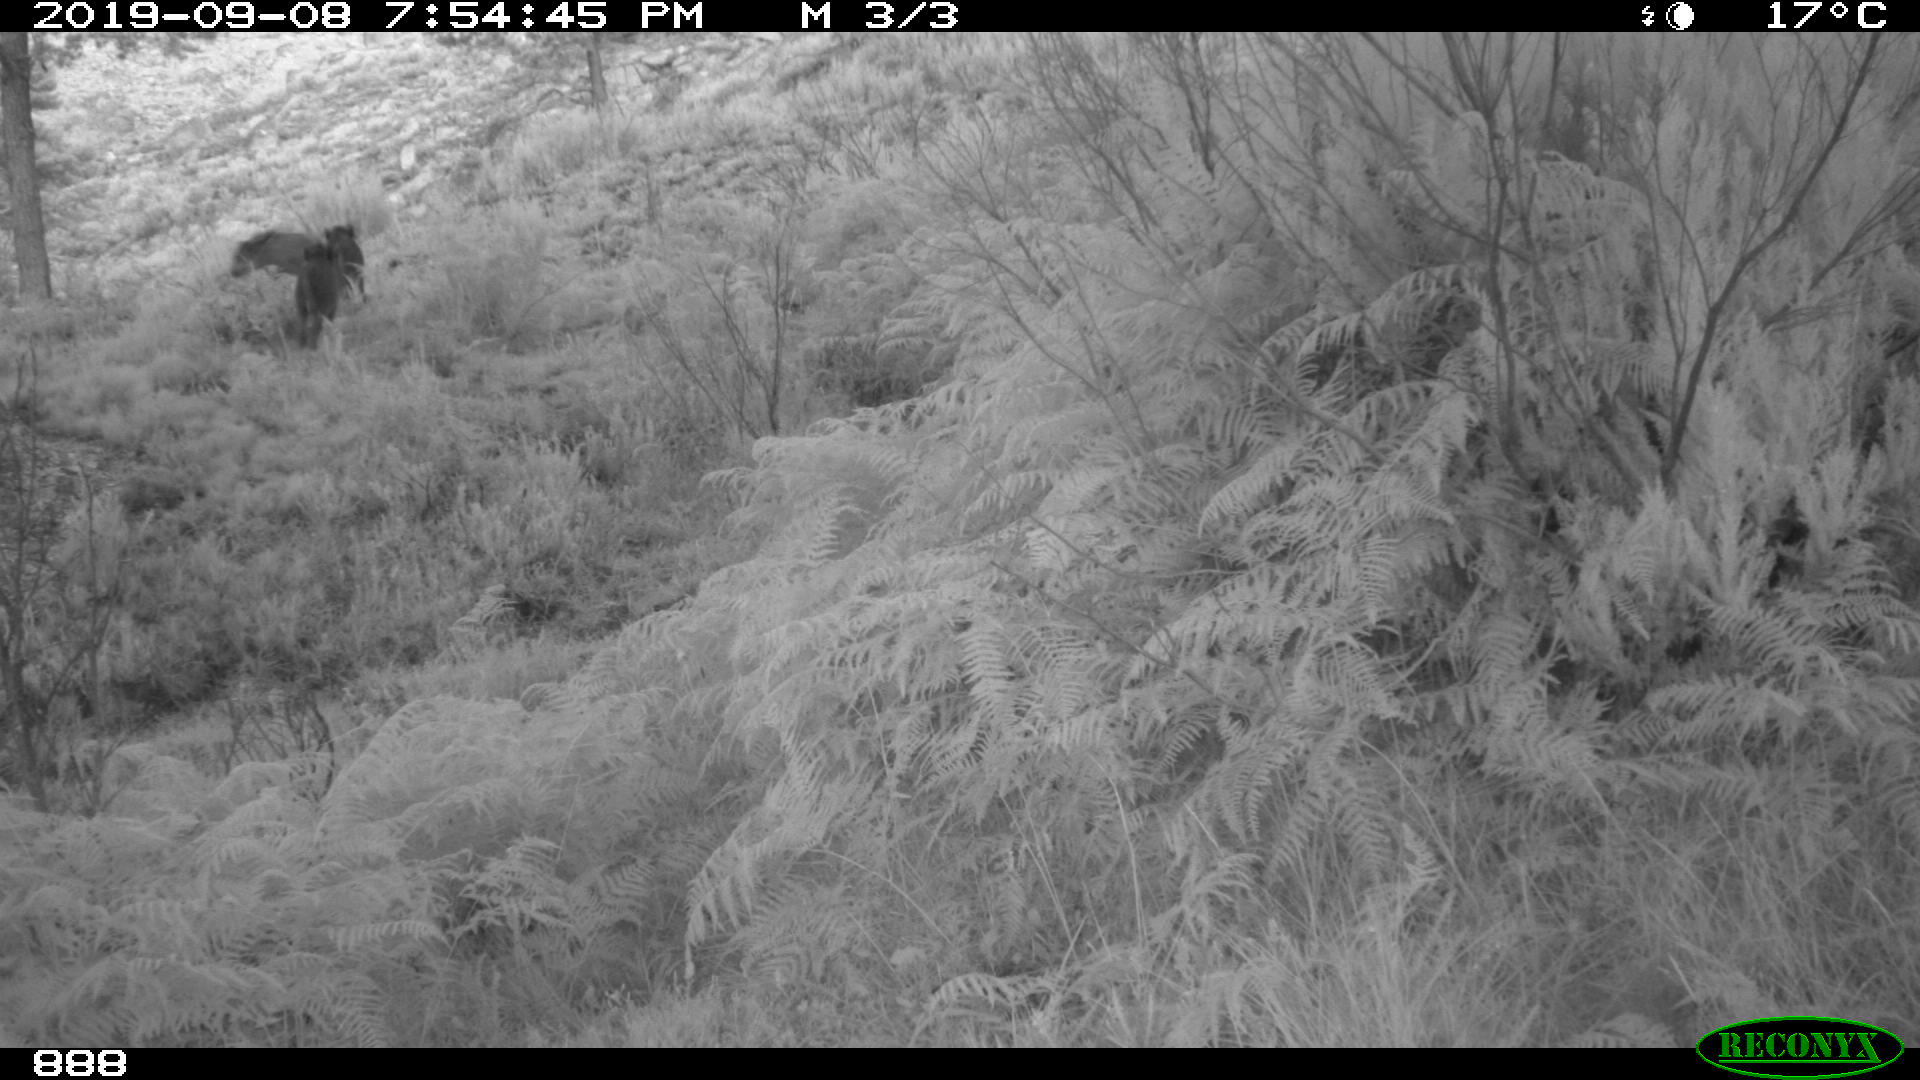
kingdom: Animalia
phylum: Chordata
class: Mammalia
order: Artiodactyla
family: Suidae
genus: Sus
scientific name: Sus scrofa
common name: Wild boar
